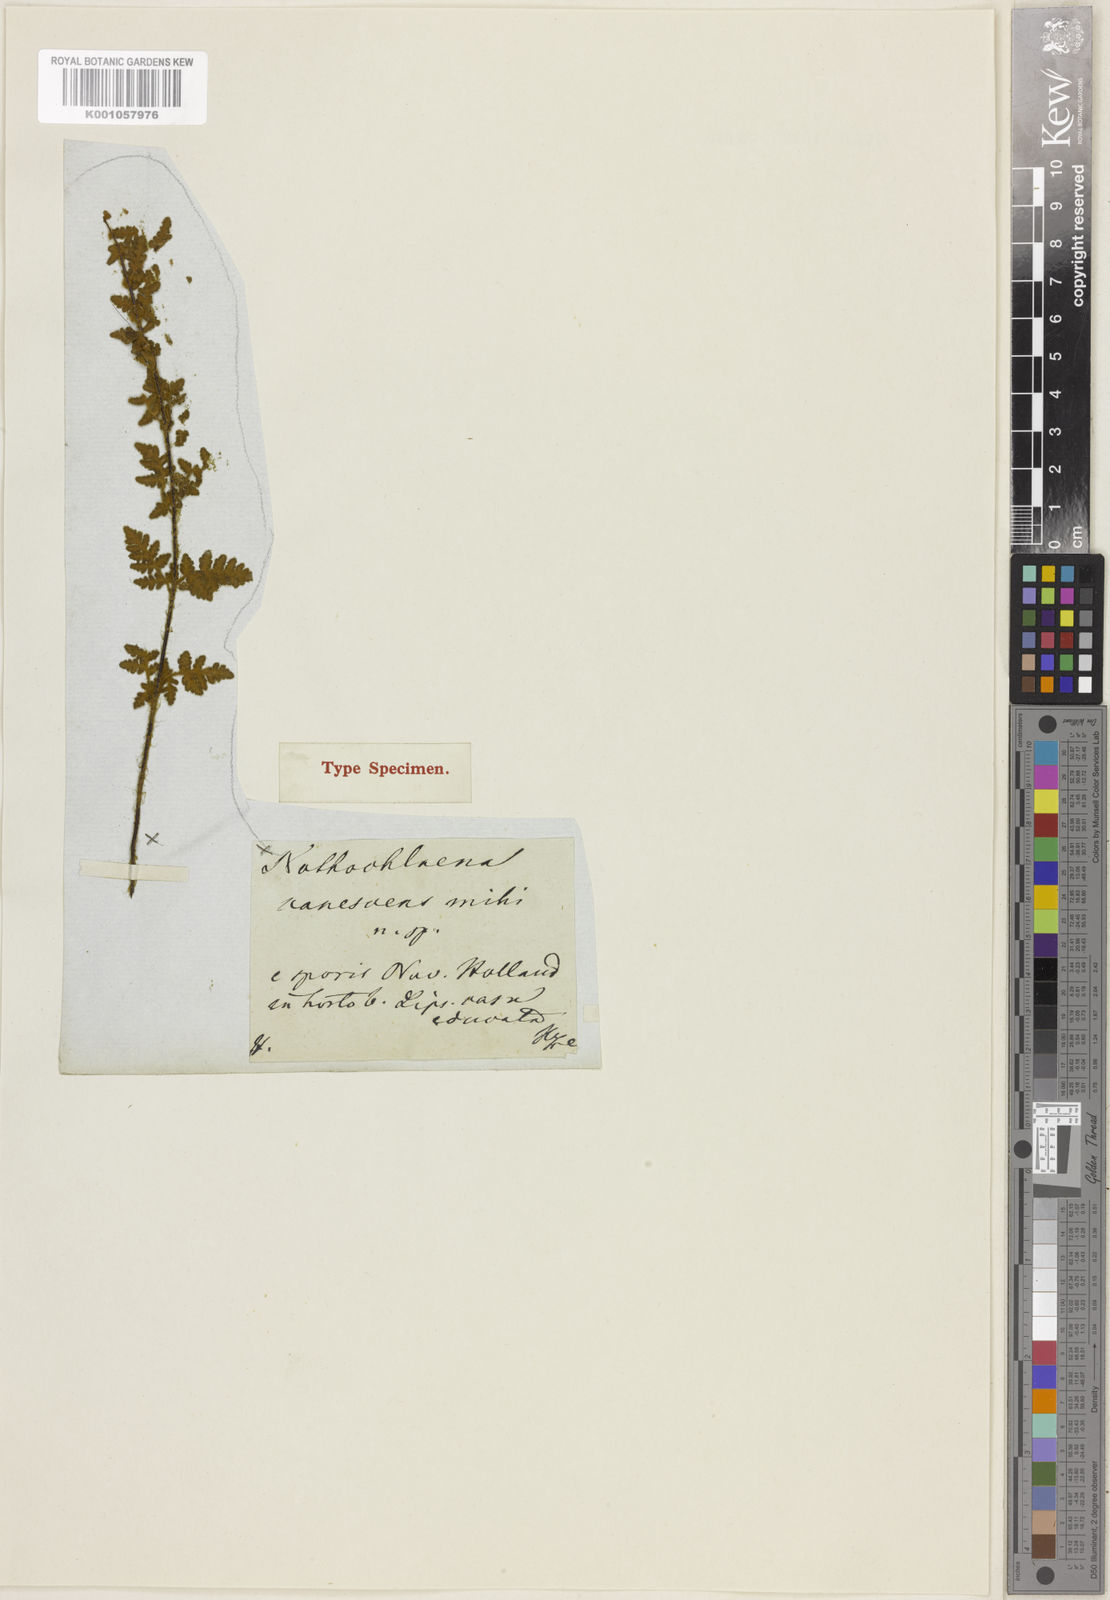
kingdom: Plantae
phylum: Tracheophyta
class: Polypodiopsida
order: Polypodiales
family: Woodsiaceae
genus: Physematium
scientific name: Physematium canescens
